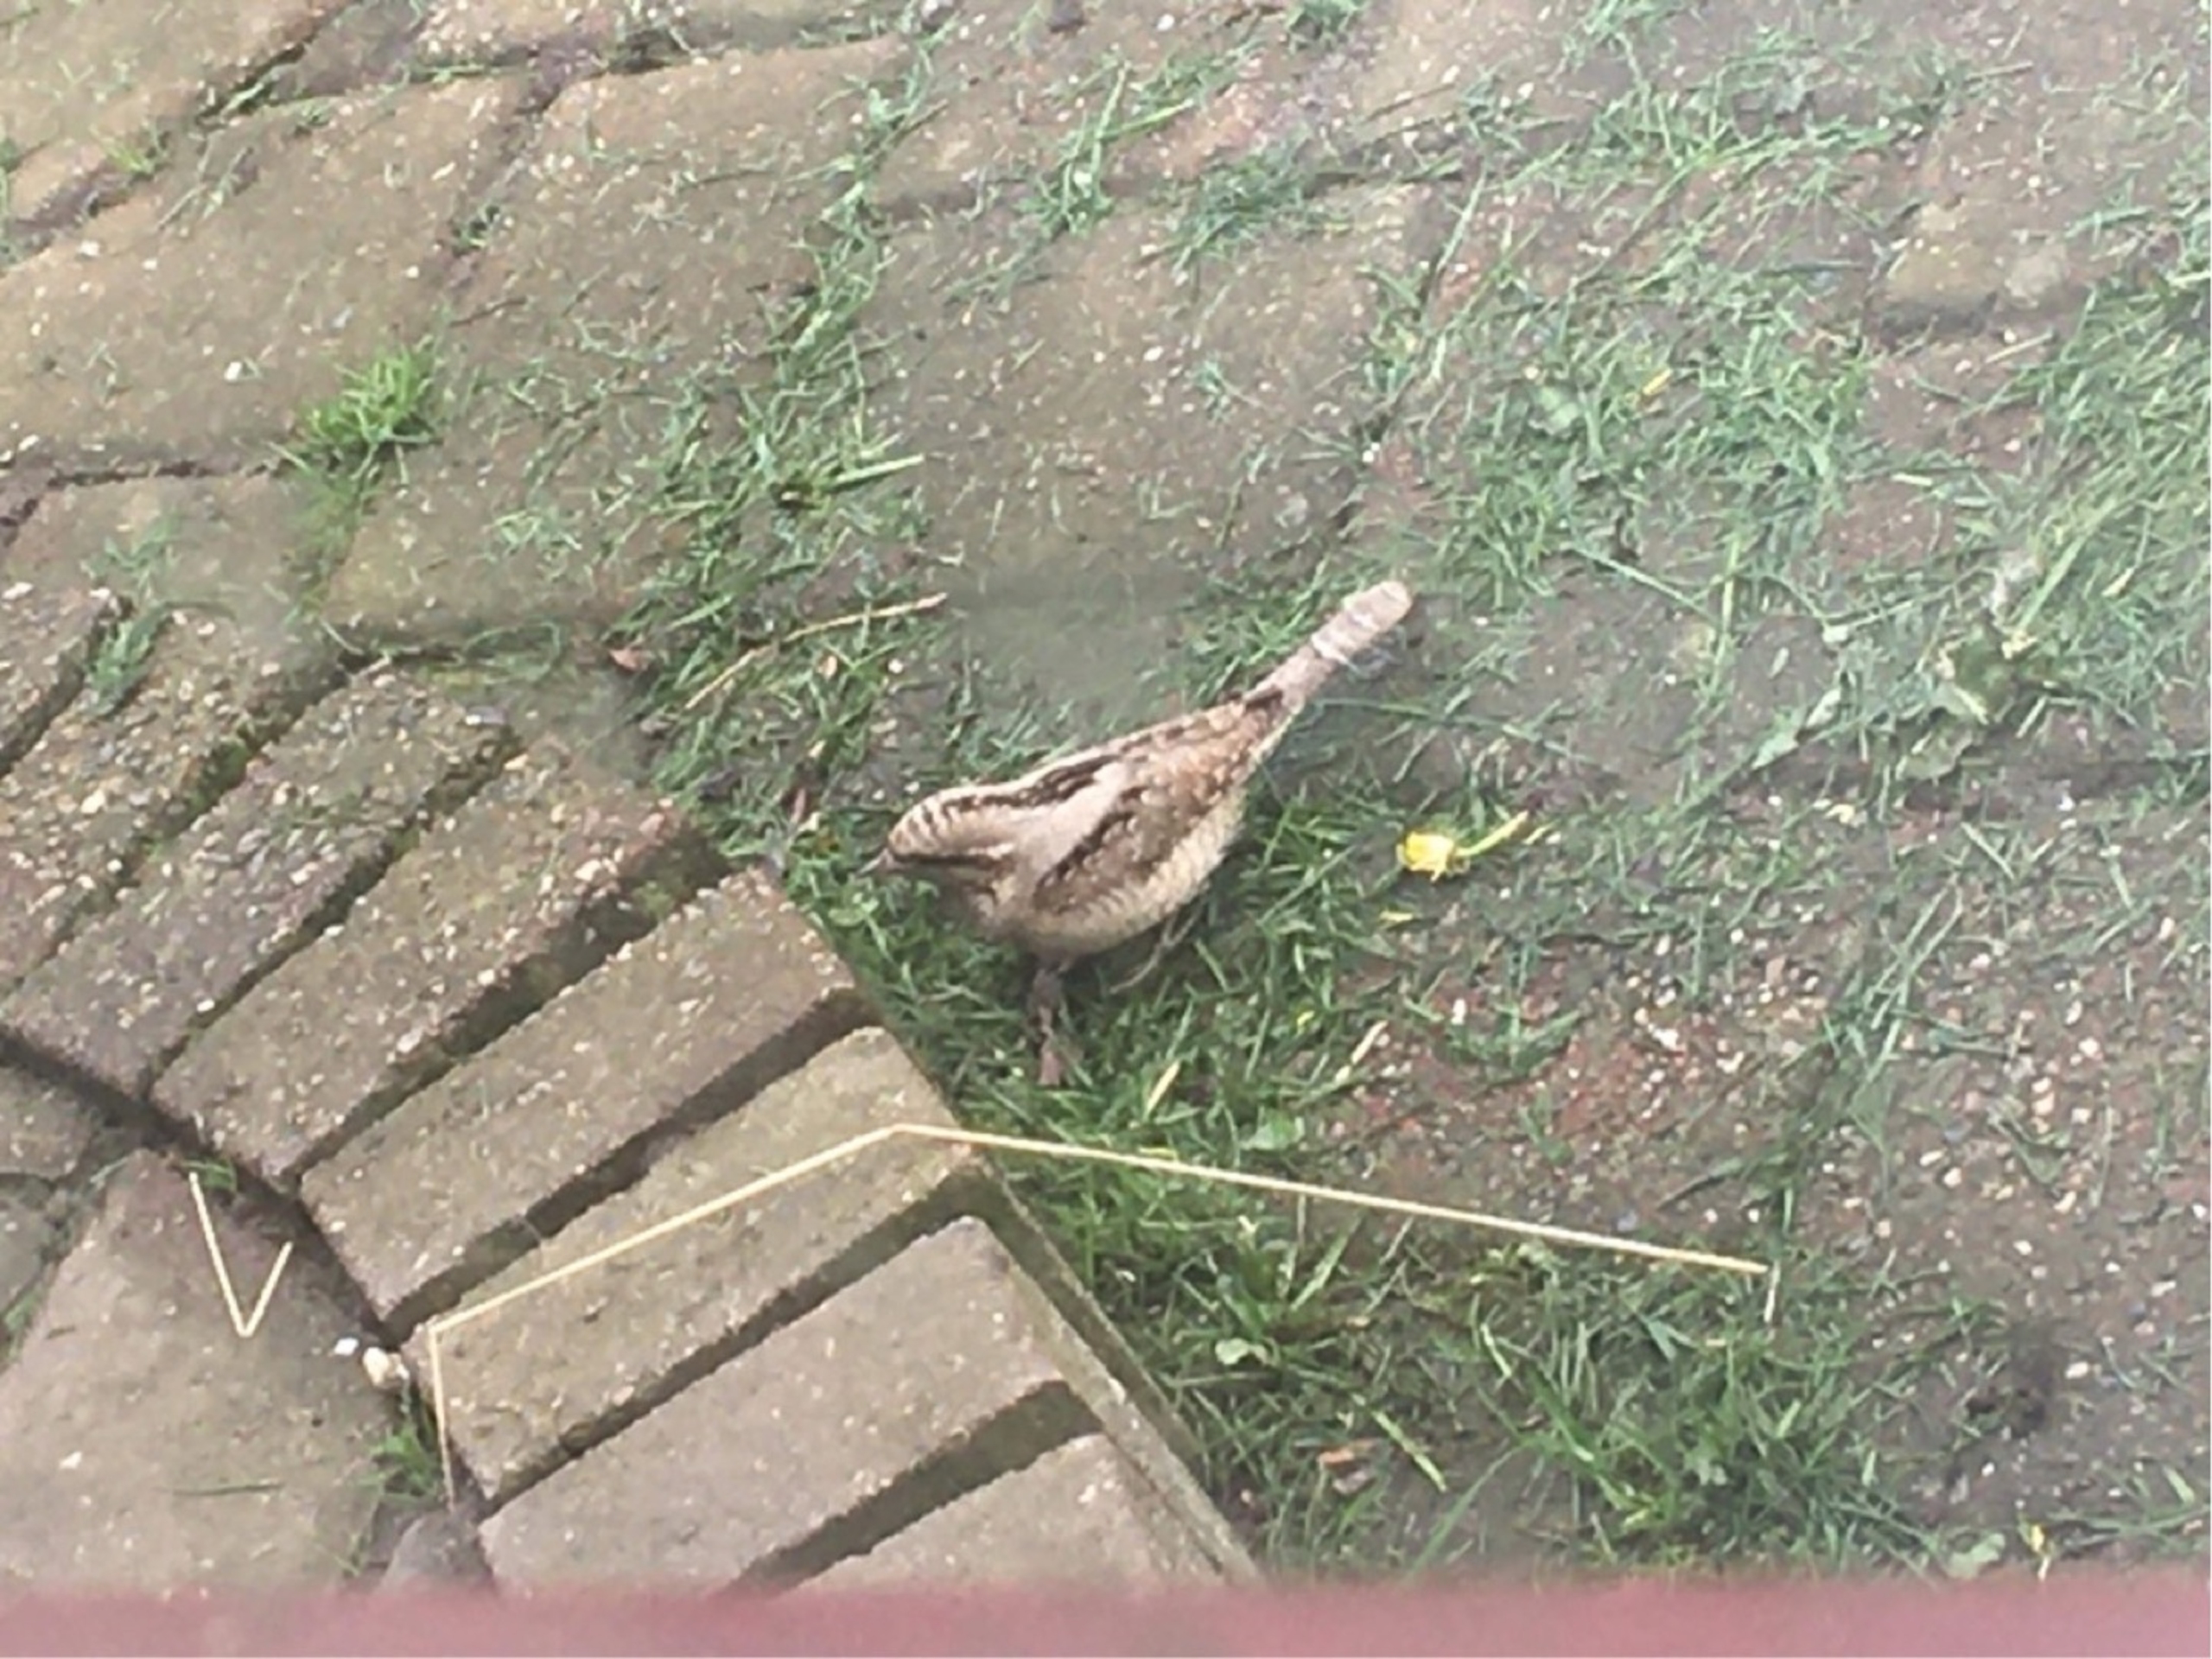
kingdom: Animalia
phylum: Chordata
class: Aves
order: Piciformes
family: Picidae
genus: Jynx
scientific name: Jynx torquilla
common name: Vendehals
